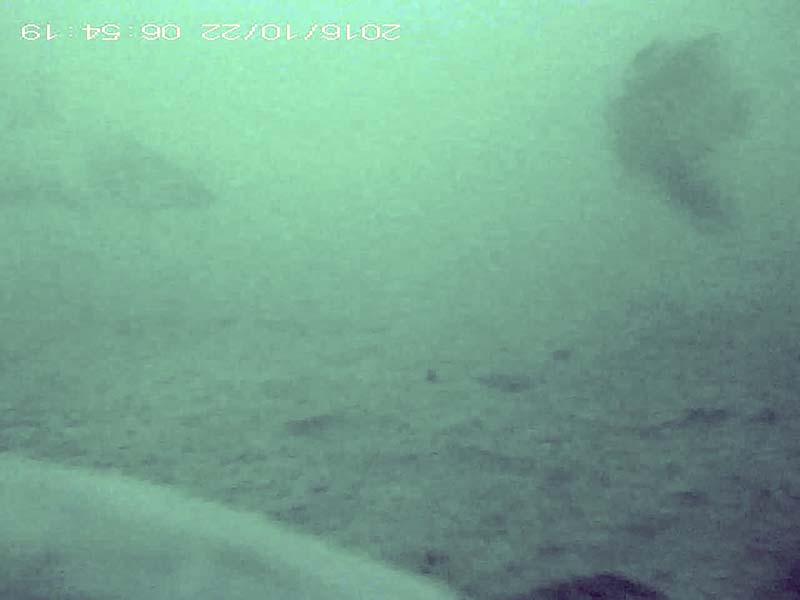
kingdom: Animalia
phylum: Chordata
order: Cypriniformes
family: Cyprinidae
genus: Hemibarbus
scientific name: Hemibarbus labeo
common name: ニゴイ
